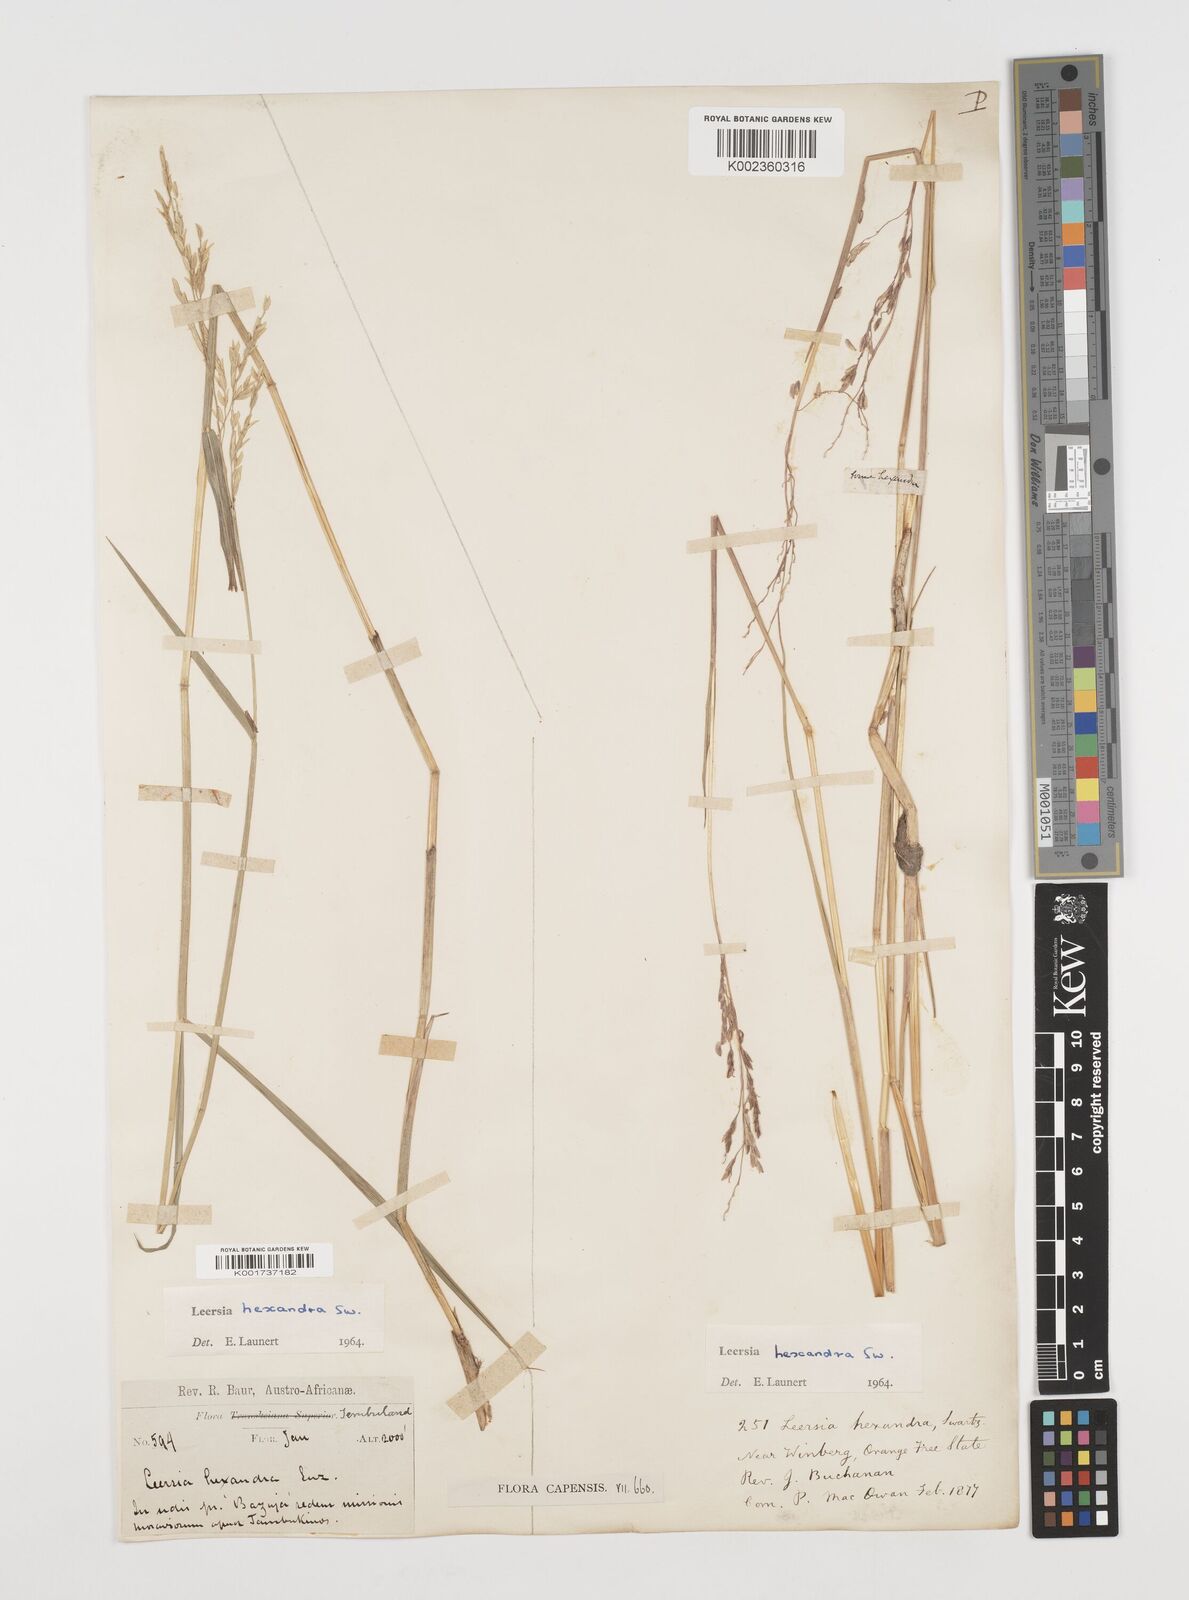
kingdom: Plantae
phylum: Tracheophyta
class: Liliopsida
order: Poales
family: Poaceae
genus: Leersia
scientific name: Leersia hexandra
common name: Southern cut grass
